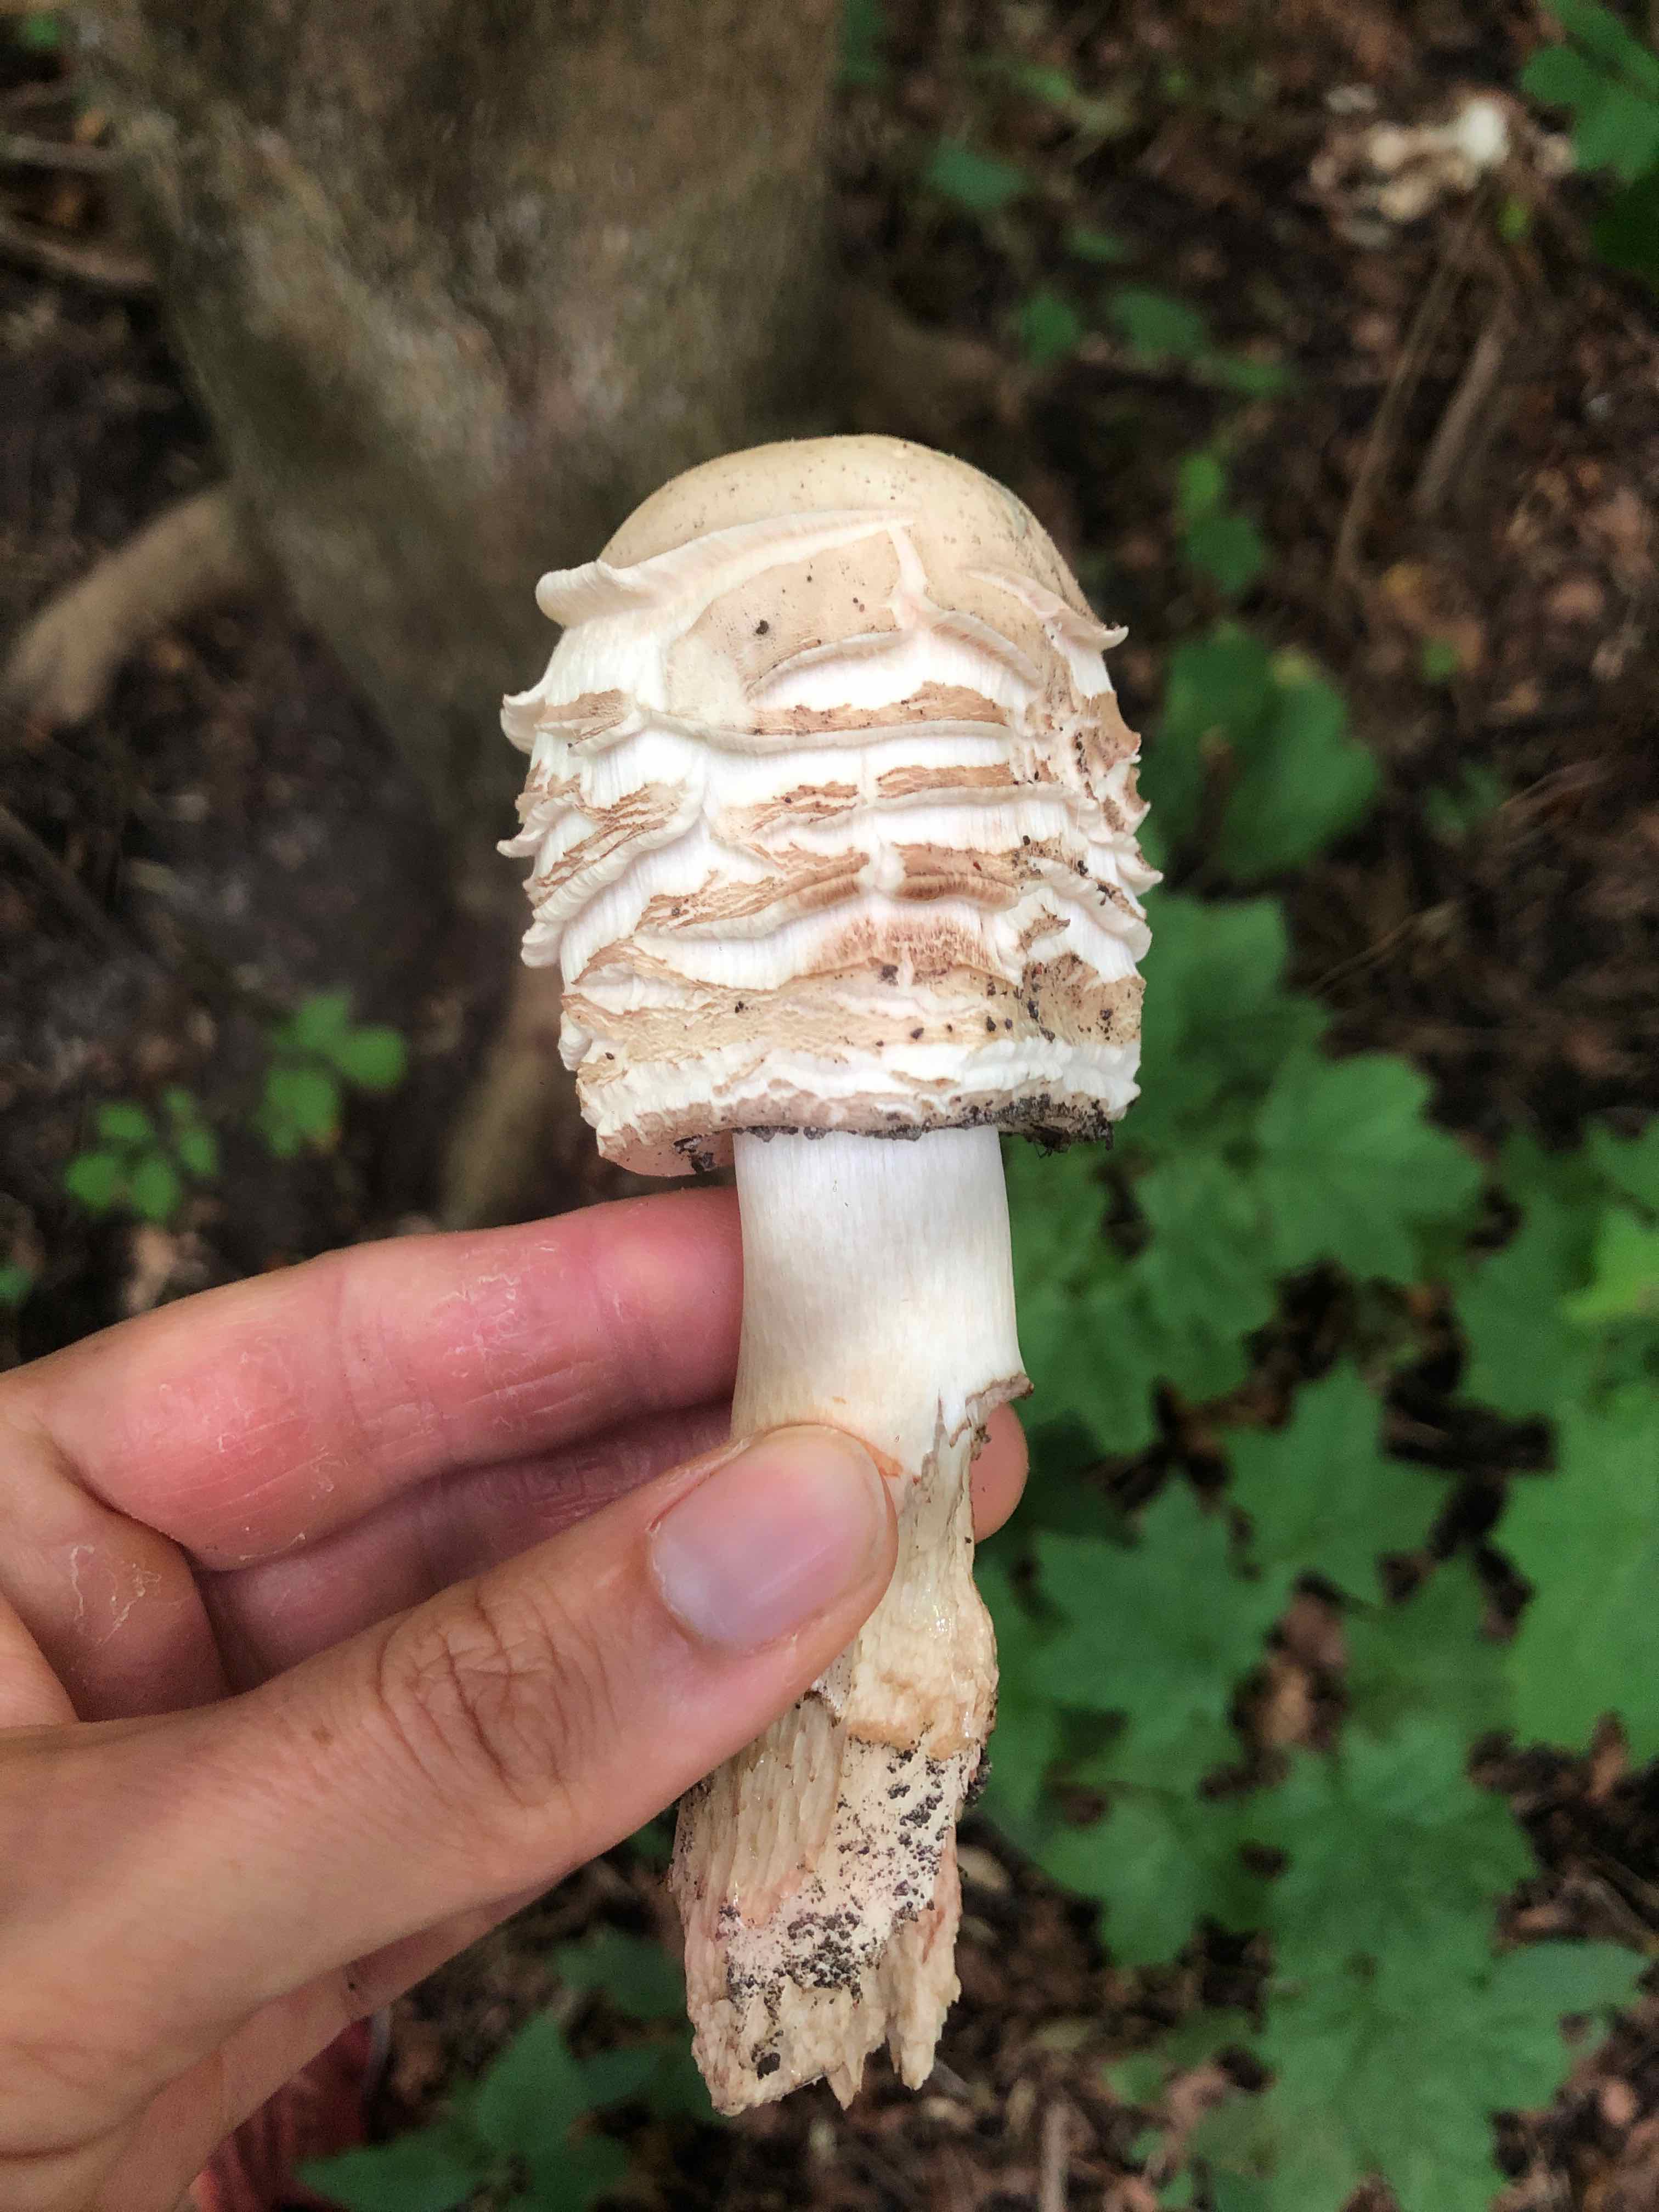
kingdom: Fungi
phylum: Basidiomycota
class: Agaricomycetes
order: Agaricales
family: Agaricaceae
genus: Chlorophyllum
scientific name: Chlorophyllum
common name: rabarberhat
